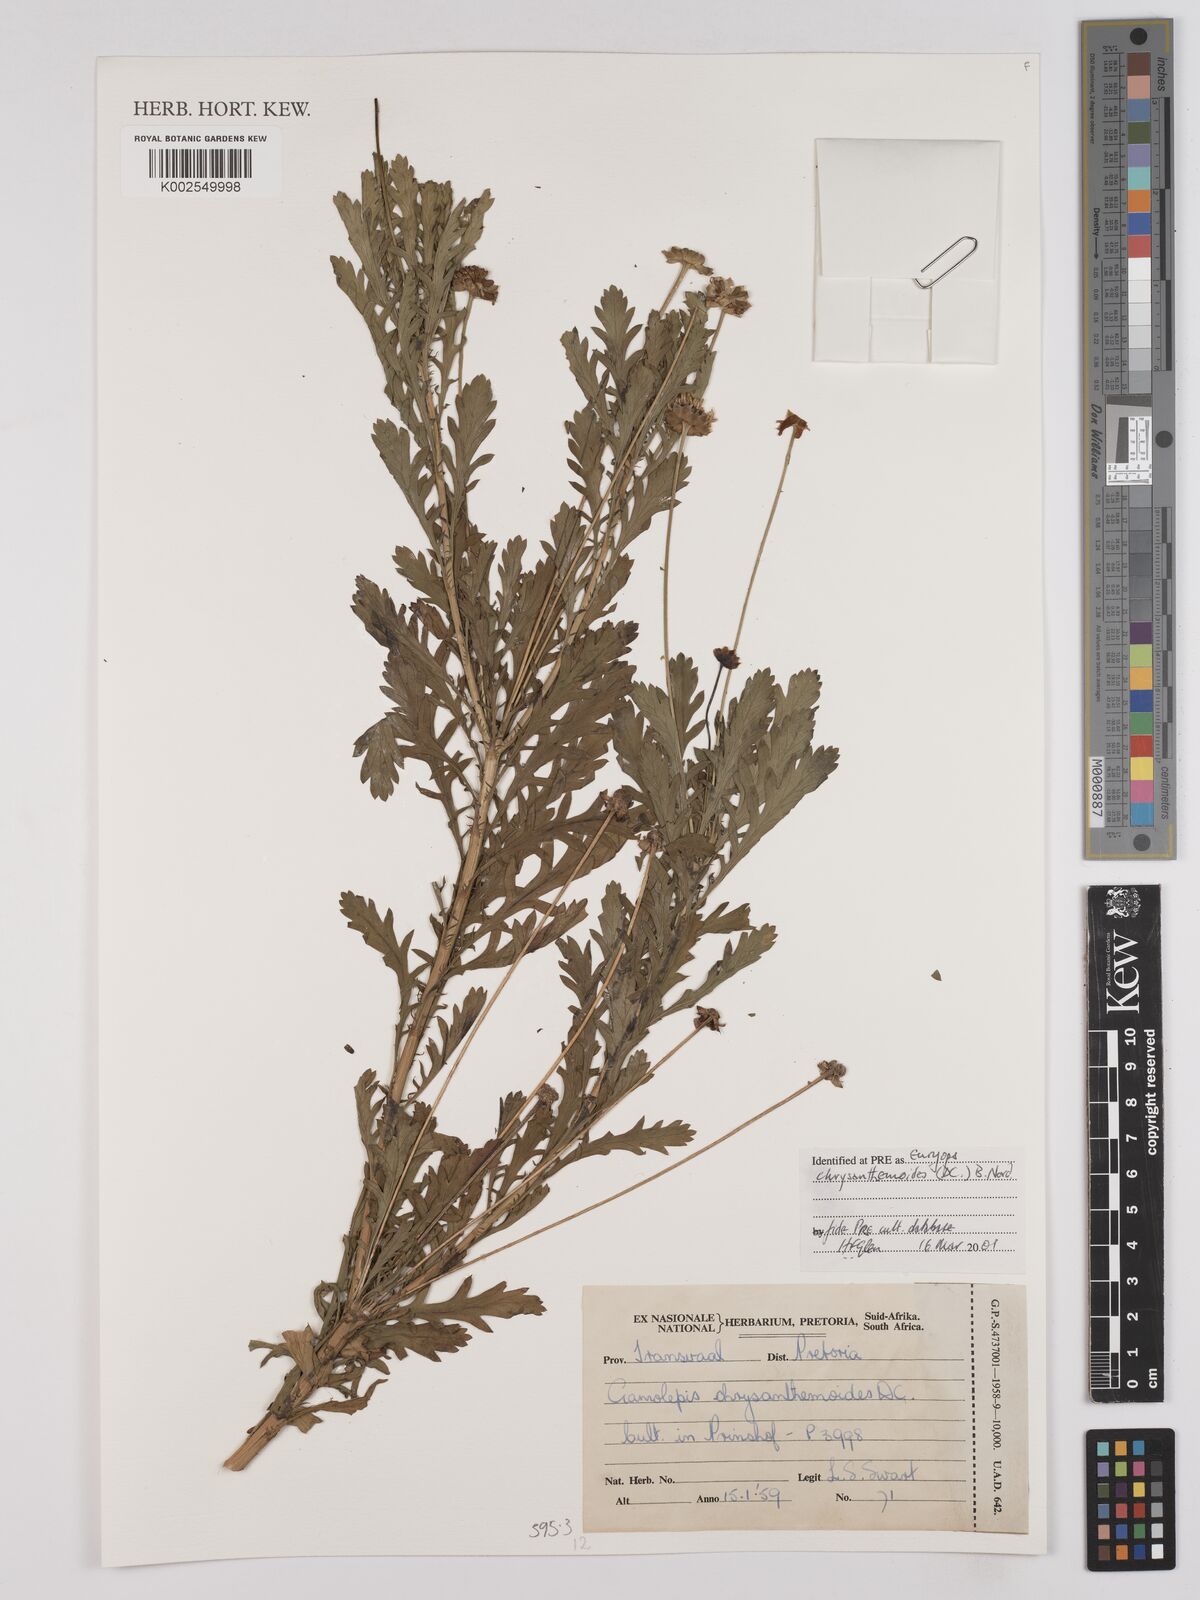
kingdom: Plantae
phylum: Tracheophyta
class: Magnoliopsida
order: Asterales
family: Asteraceae
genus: Euryops
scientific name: Euryops chrysanthemoides
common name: Bull's eye
